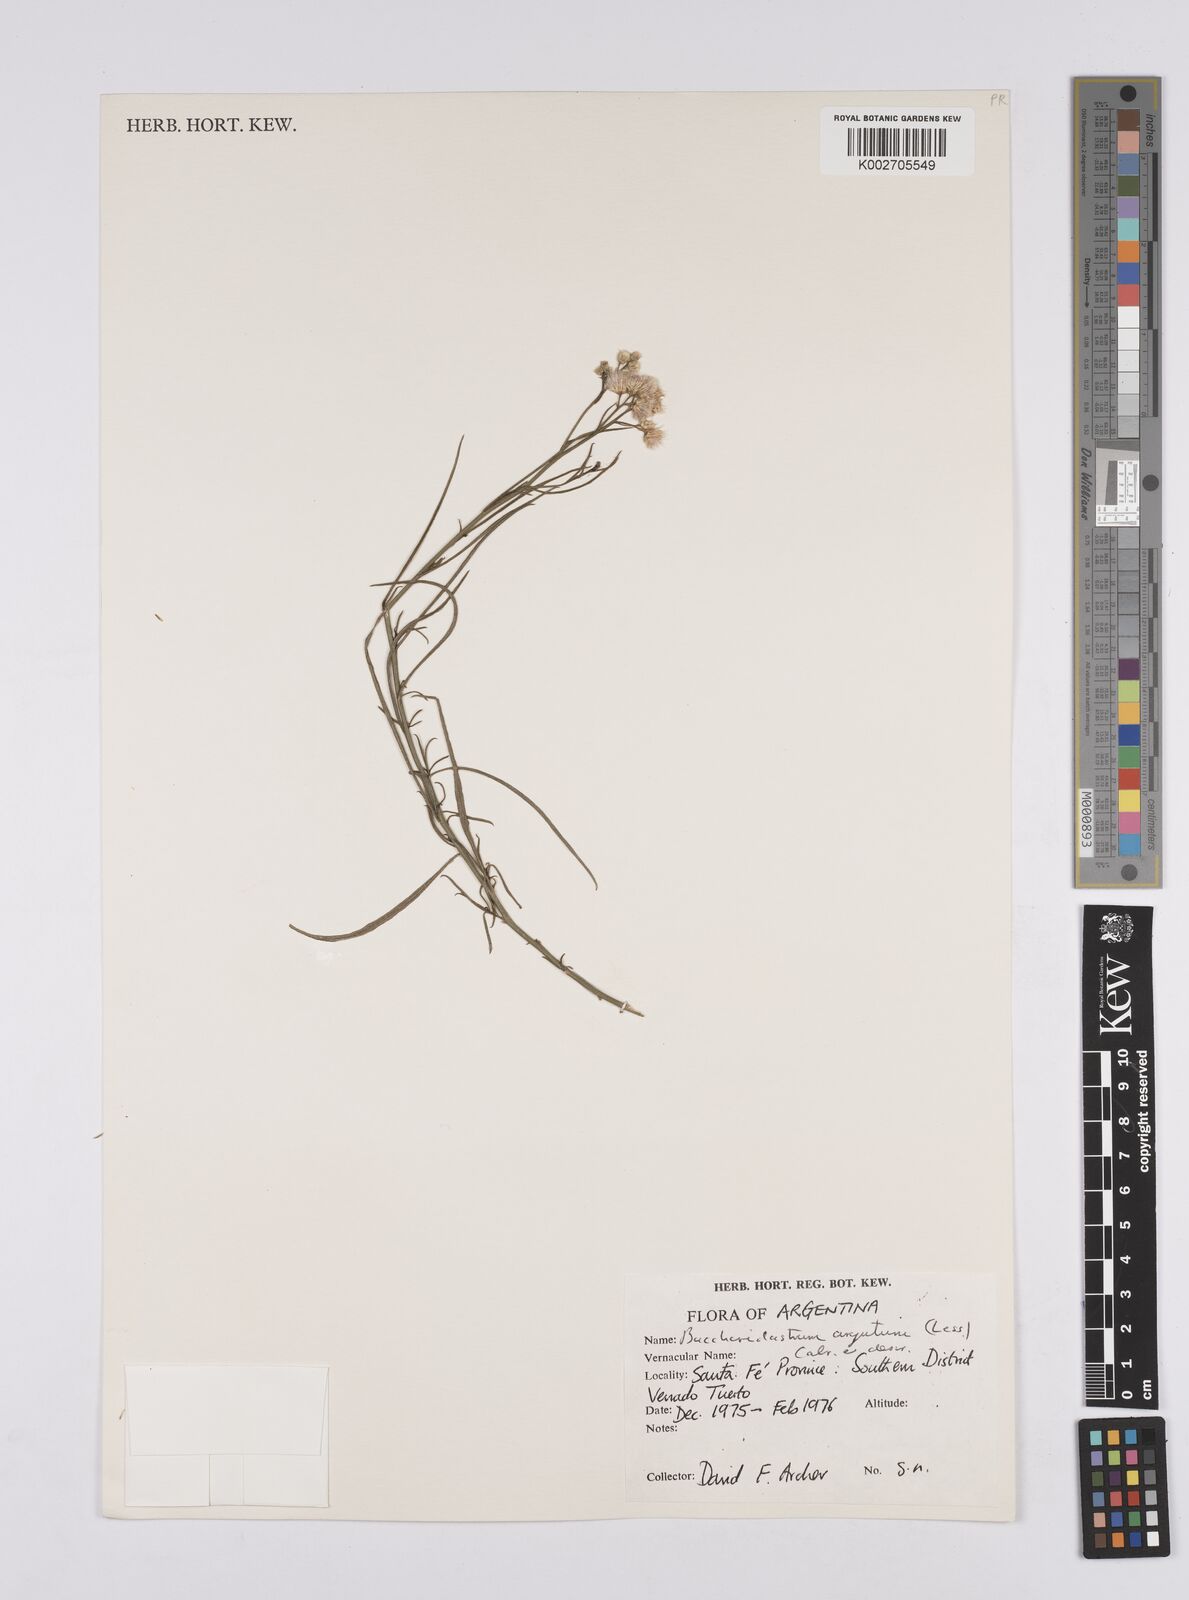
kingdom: Plantae
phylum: Tracheophyta
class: Magnoliopsida
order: Asterales
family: Asteraceae
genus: Baccharis
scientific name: Baccharis breviseta
